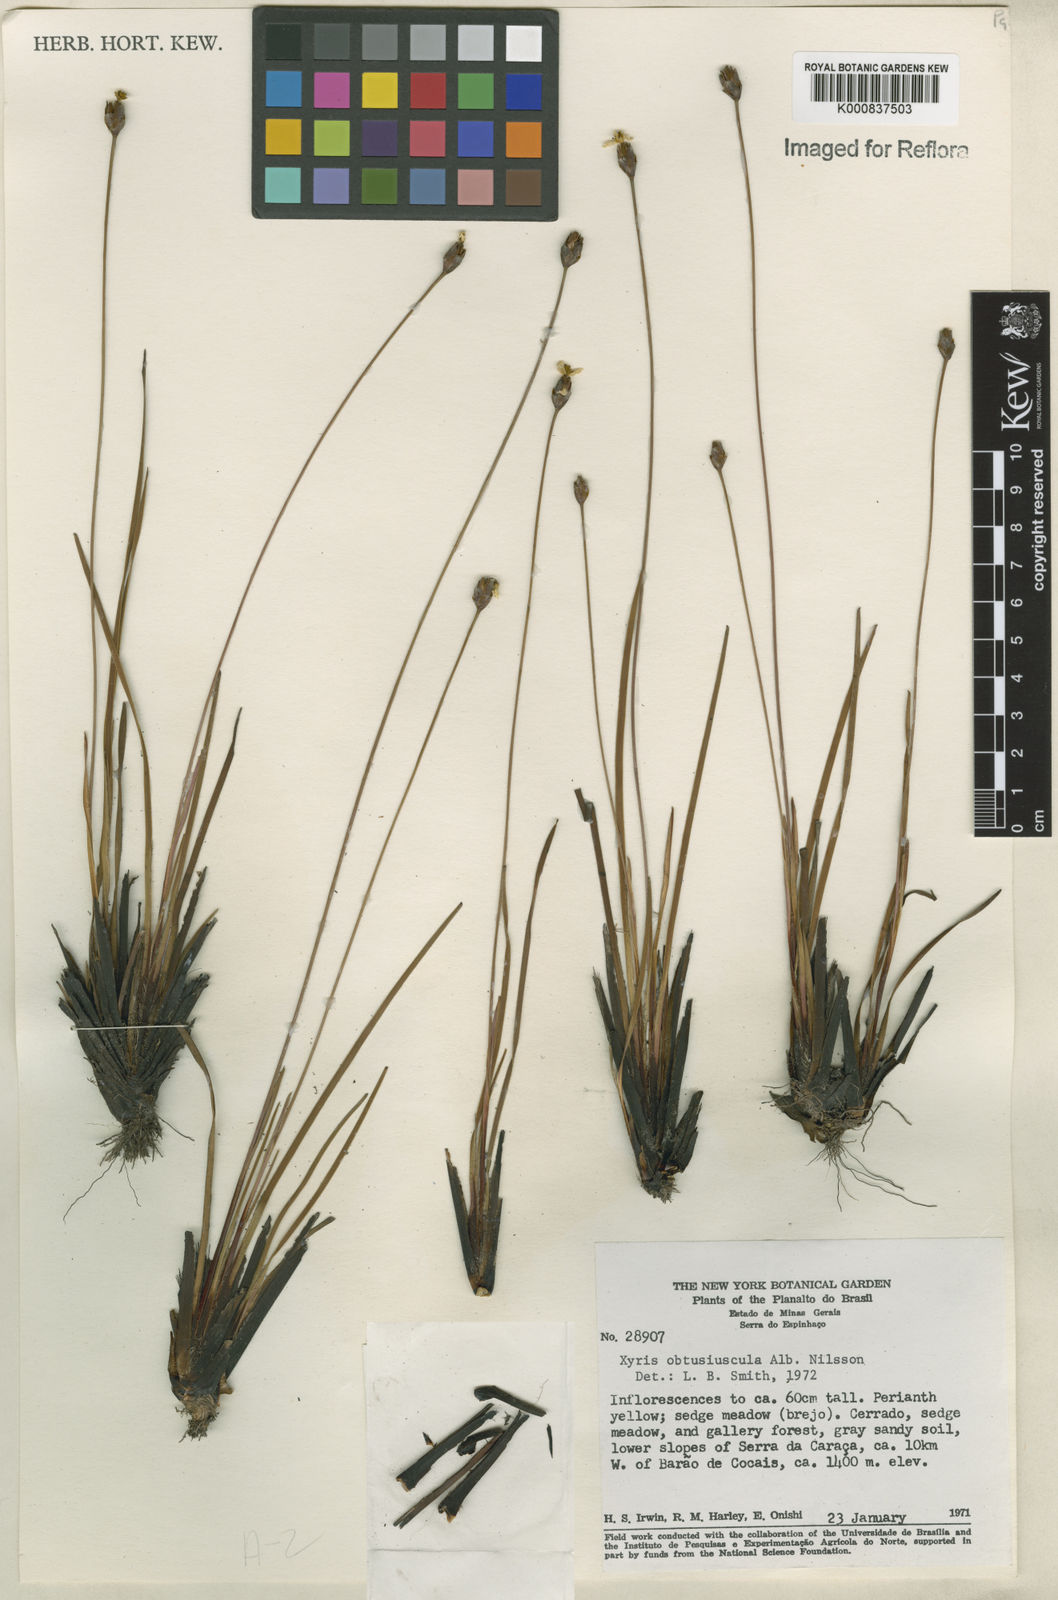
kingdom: Plantae
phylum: Tracheophyta
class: Liliopsida
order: Poales
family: Xyridaceae
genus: Xyris
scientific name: Xyris obtusiuscula
